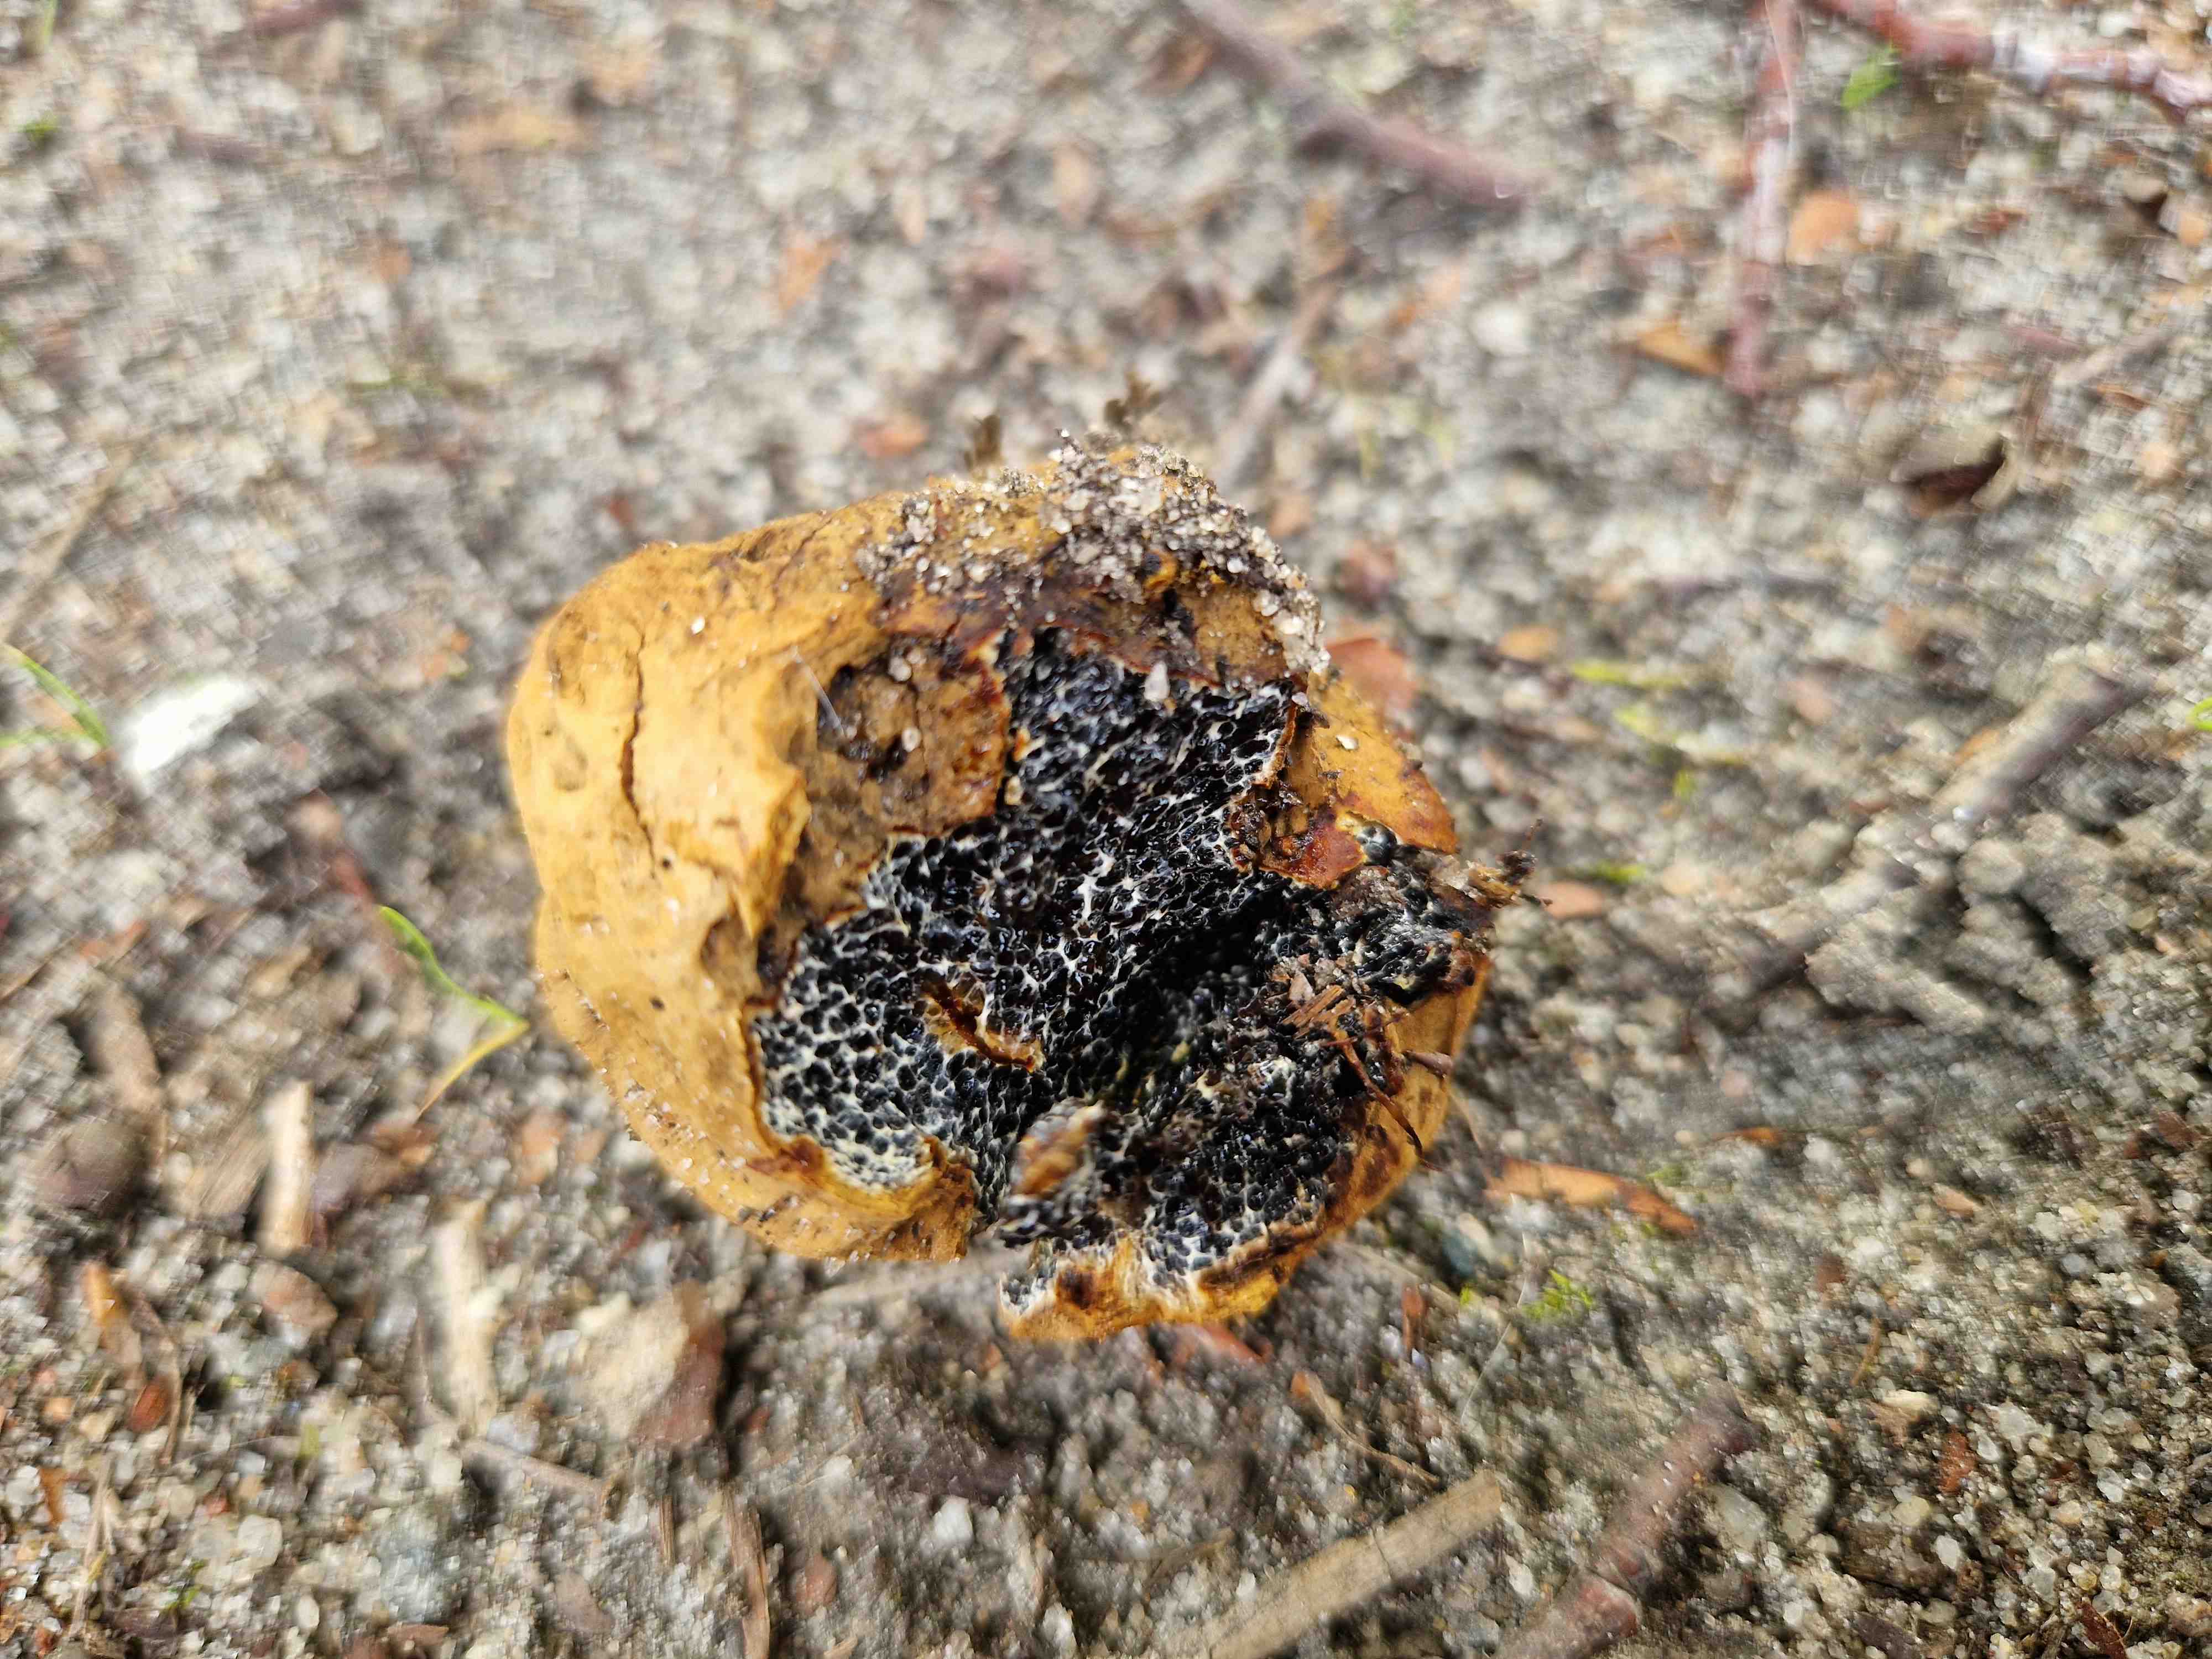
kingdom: Fungi
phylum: Basidiomycota
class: Agaricomycetes
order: Boletales
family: Paxillaceae
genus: Melanogaster
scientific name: Melanogaster
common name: slimtrøffel
